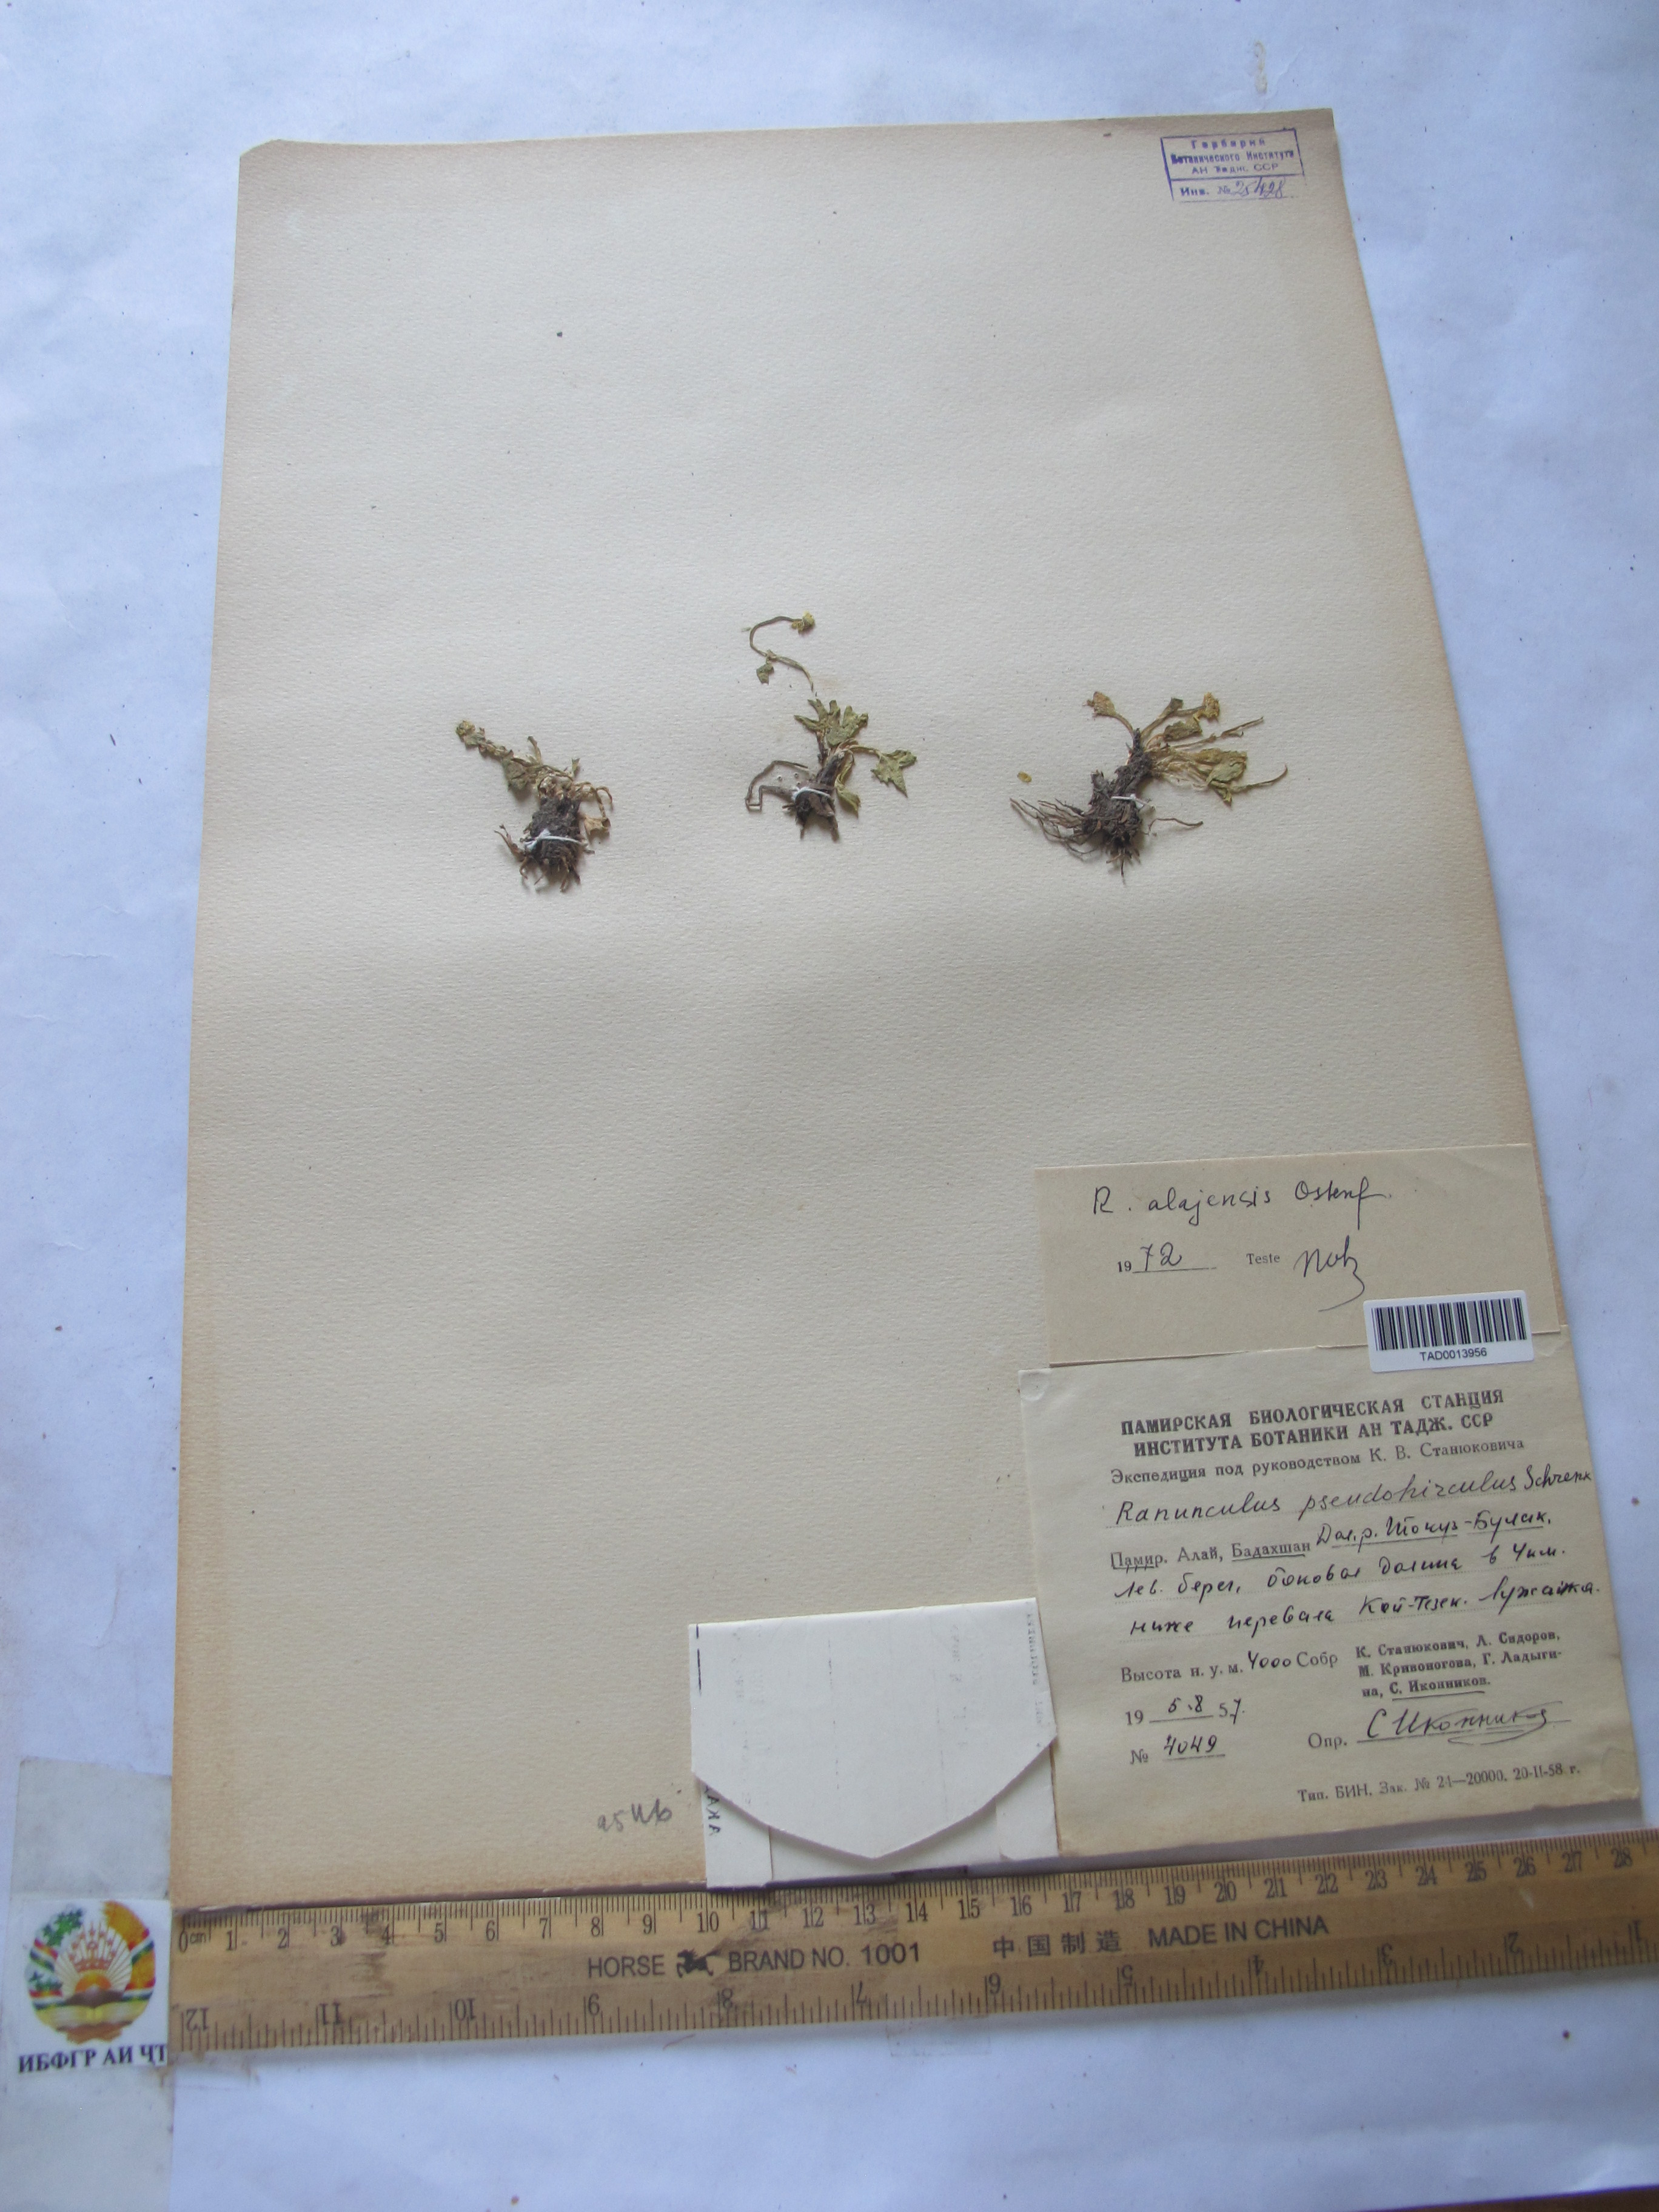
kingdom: Plantae
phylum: Tracheophyta
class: Magnoliopsida
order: Ranunculales
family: Ranunculaceae
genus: Ranunculus
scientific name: Ranunculus alaiensis
